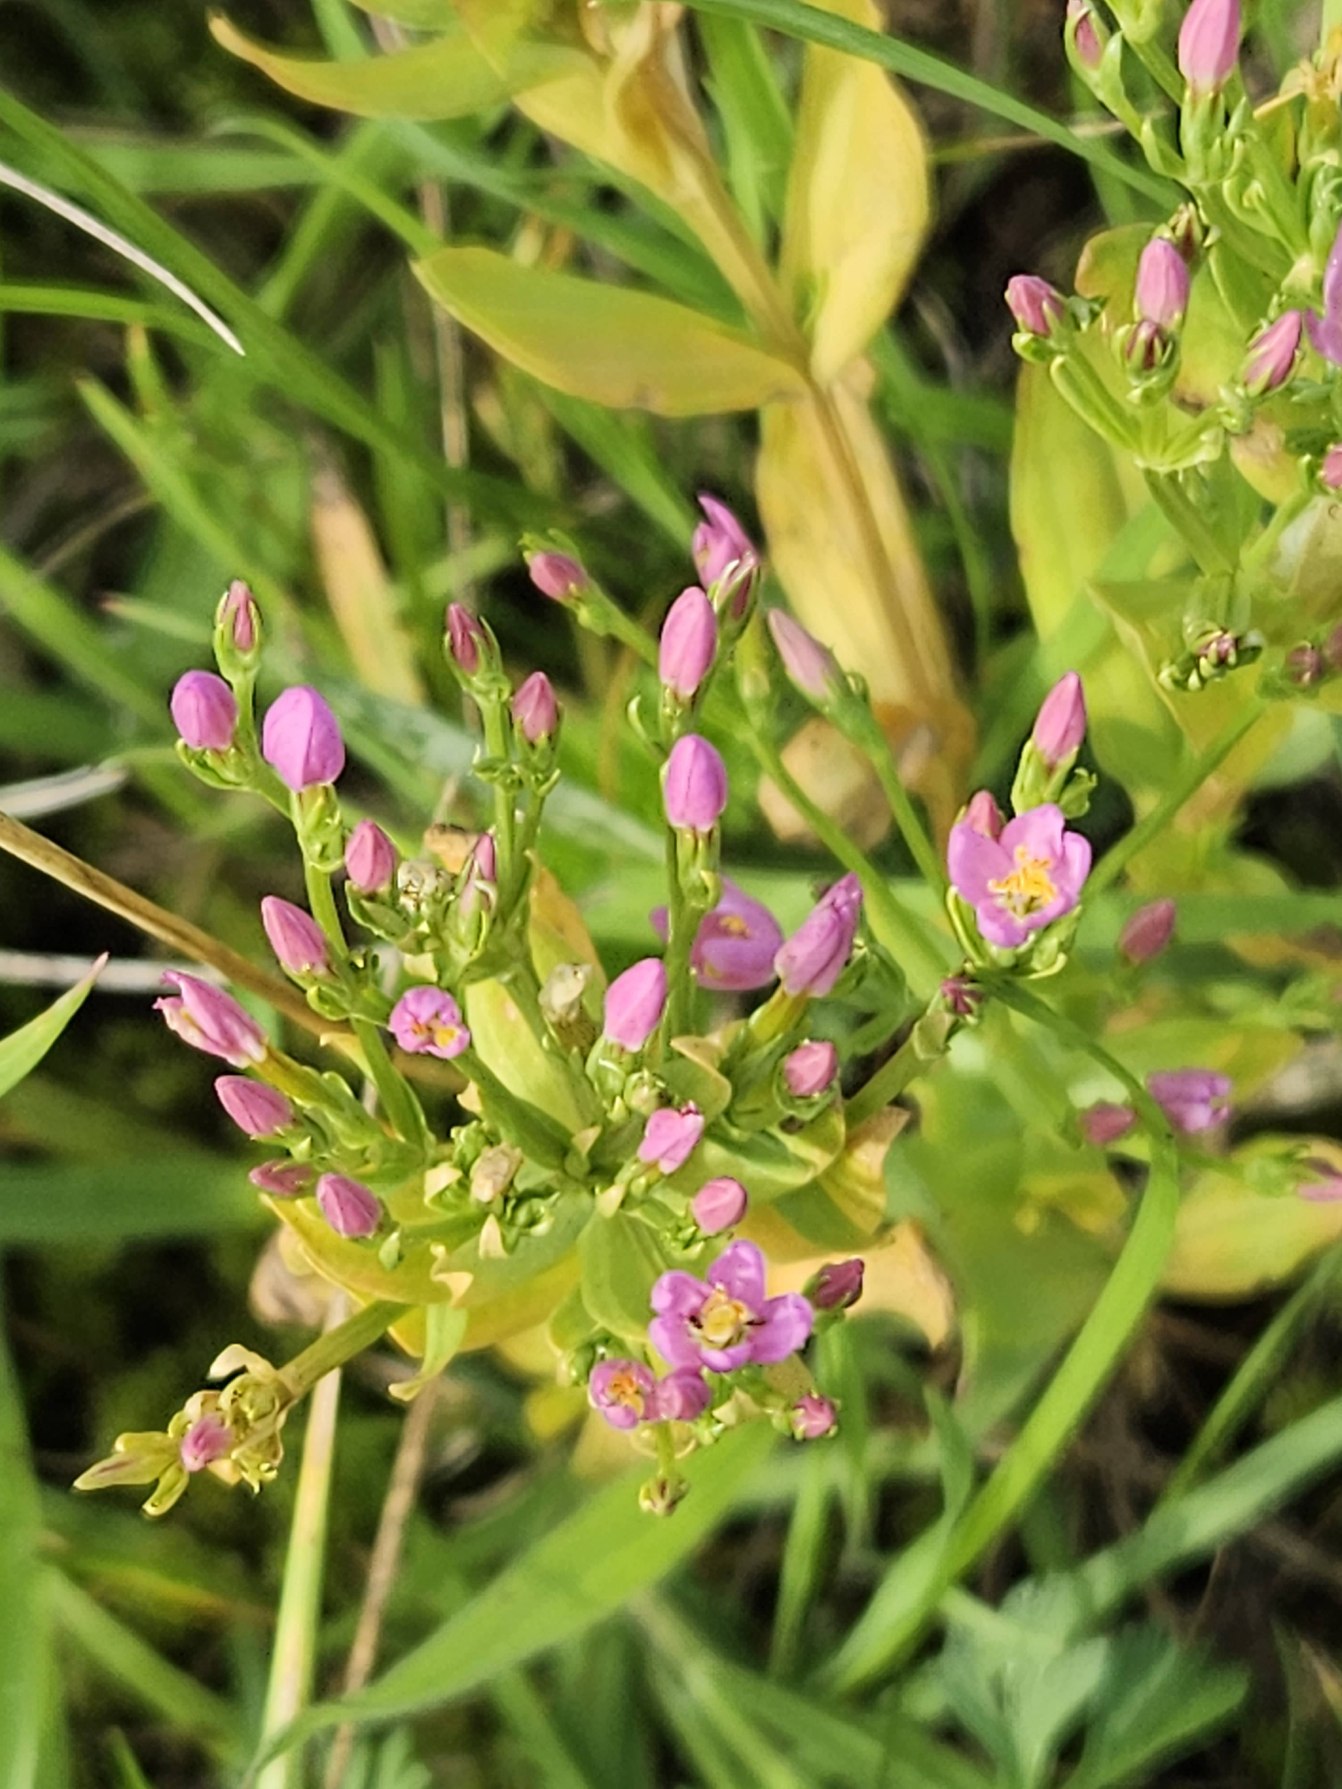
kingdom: Plantae
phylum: Tracheophyta
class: Magnoliopsida
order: Gentianales
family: Gentianaceae
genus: Centaurium
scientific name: Centaurium erythraea
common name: Mark-tusindgylden
